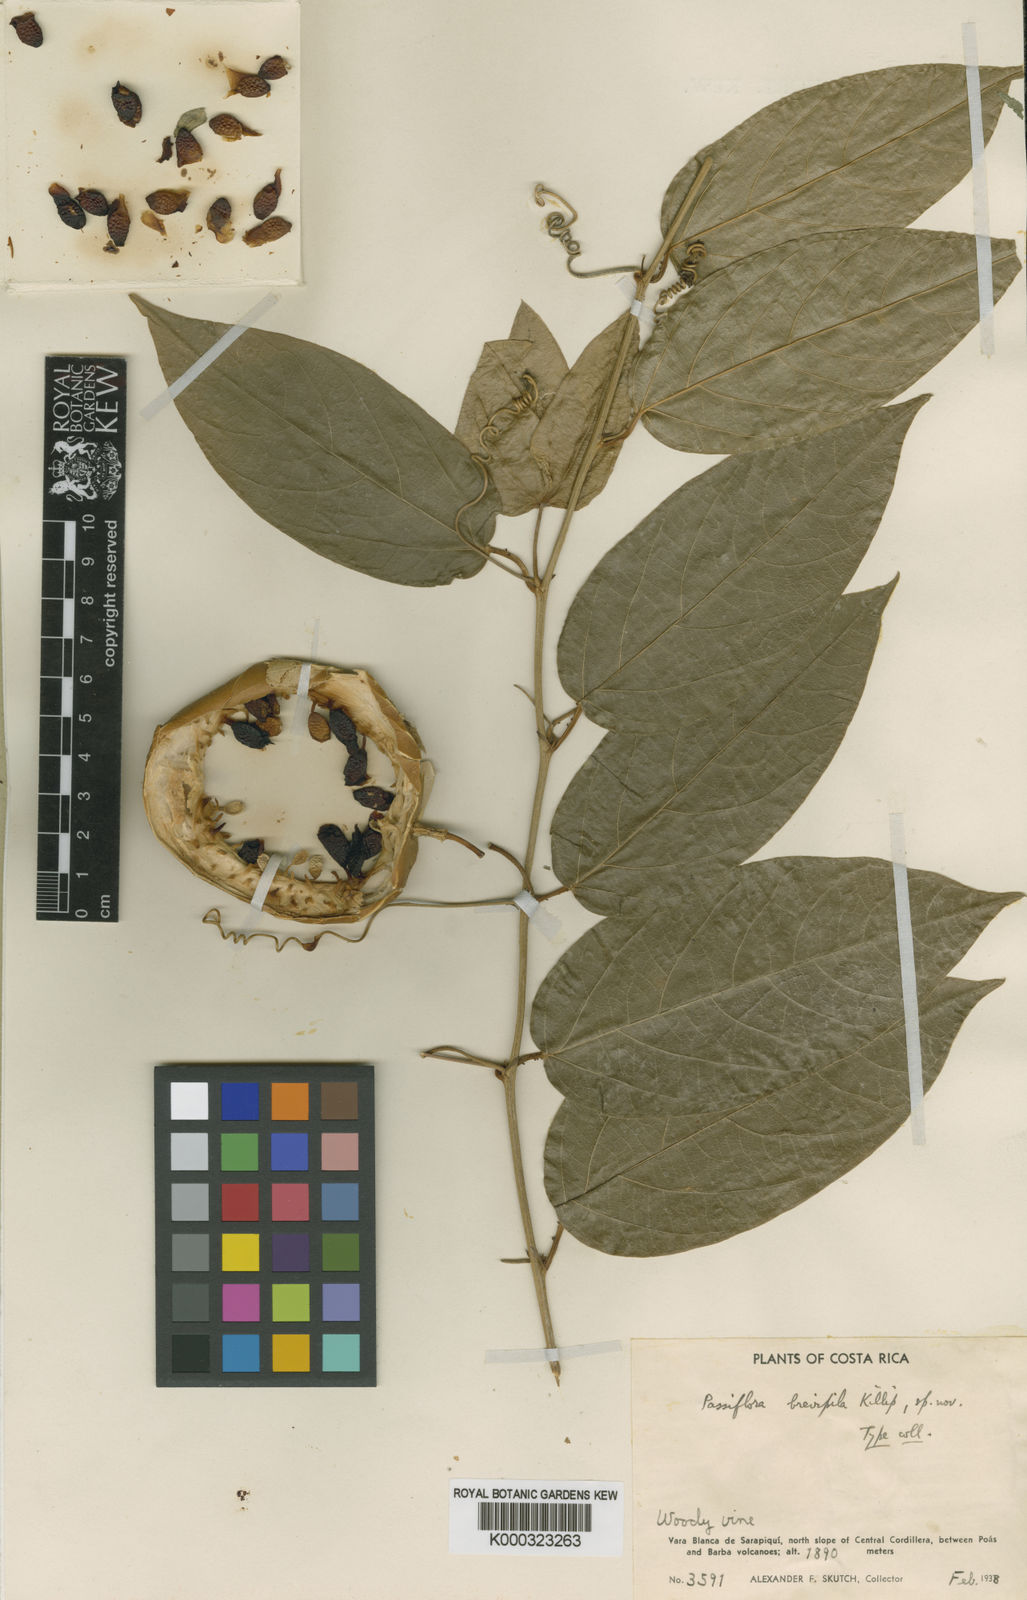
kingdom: Plantae
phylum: Tracheophyta
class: Magnoliopsida
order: Malpighiales
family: Passifloraceae
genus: Passiflora
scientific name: Passiflora brevifila
